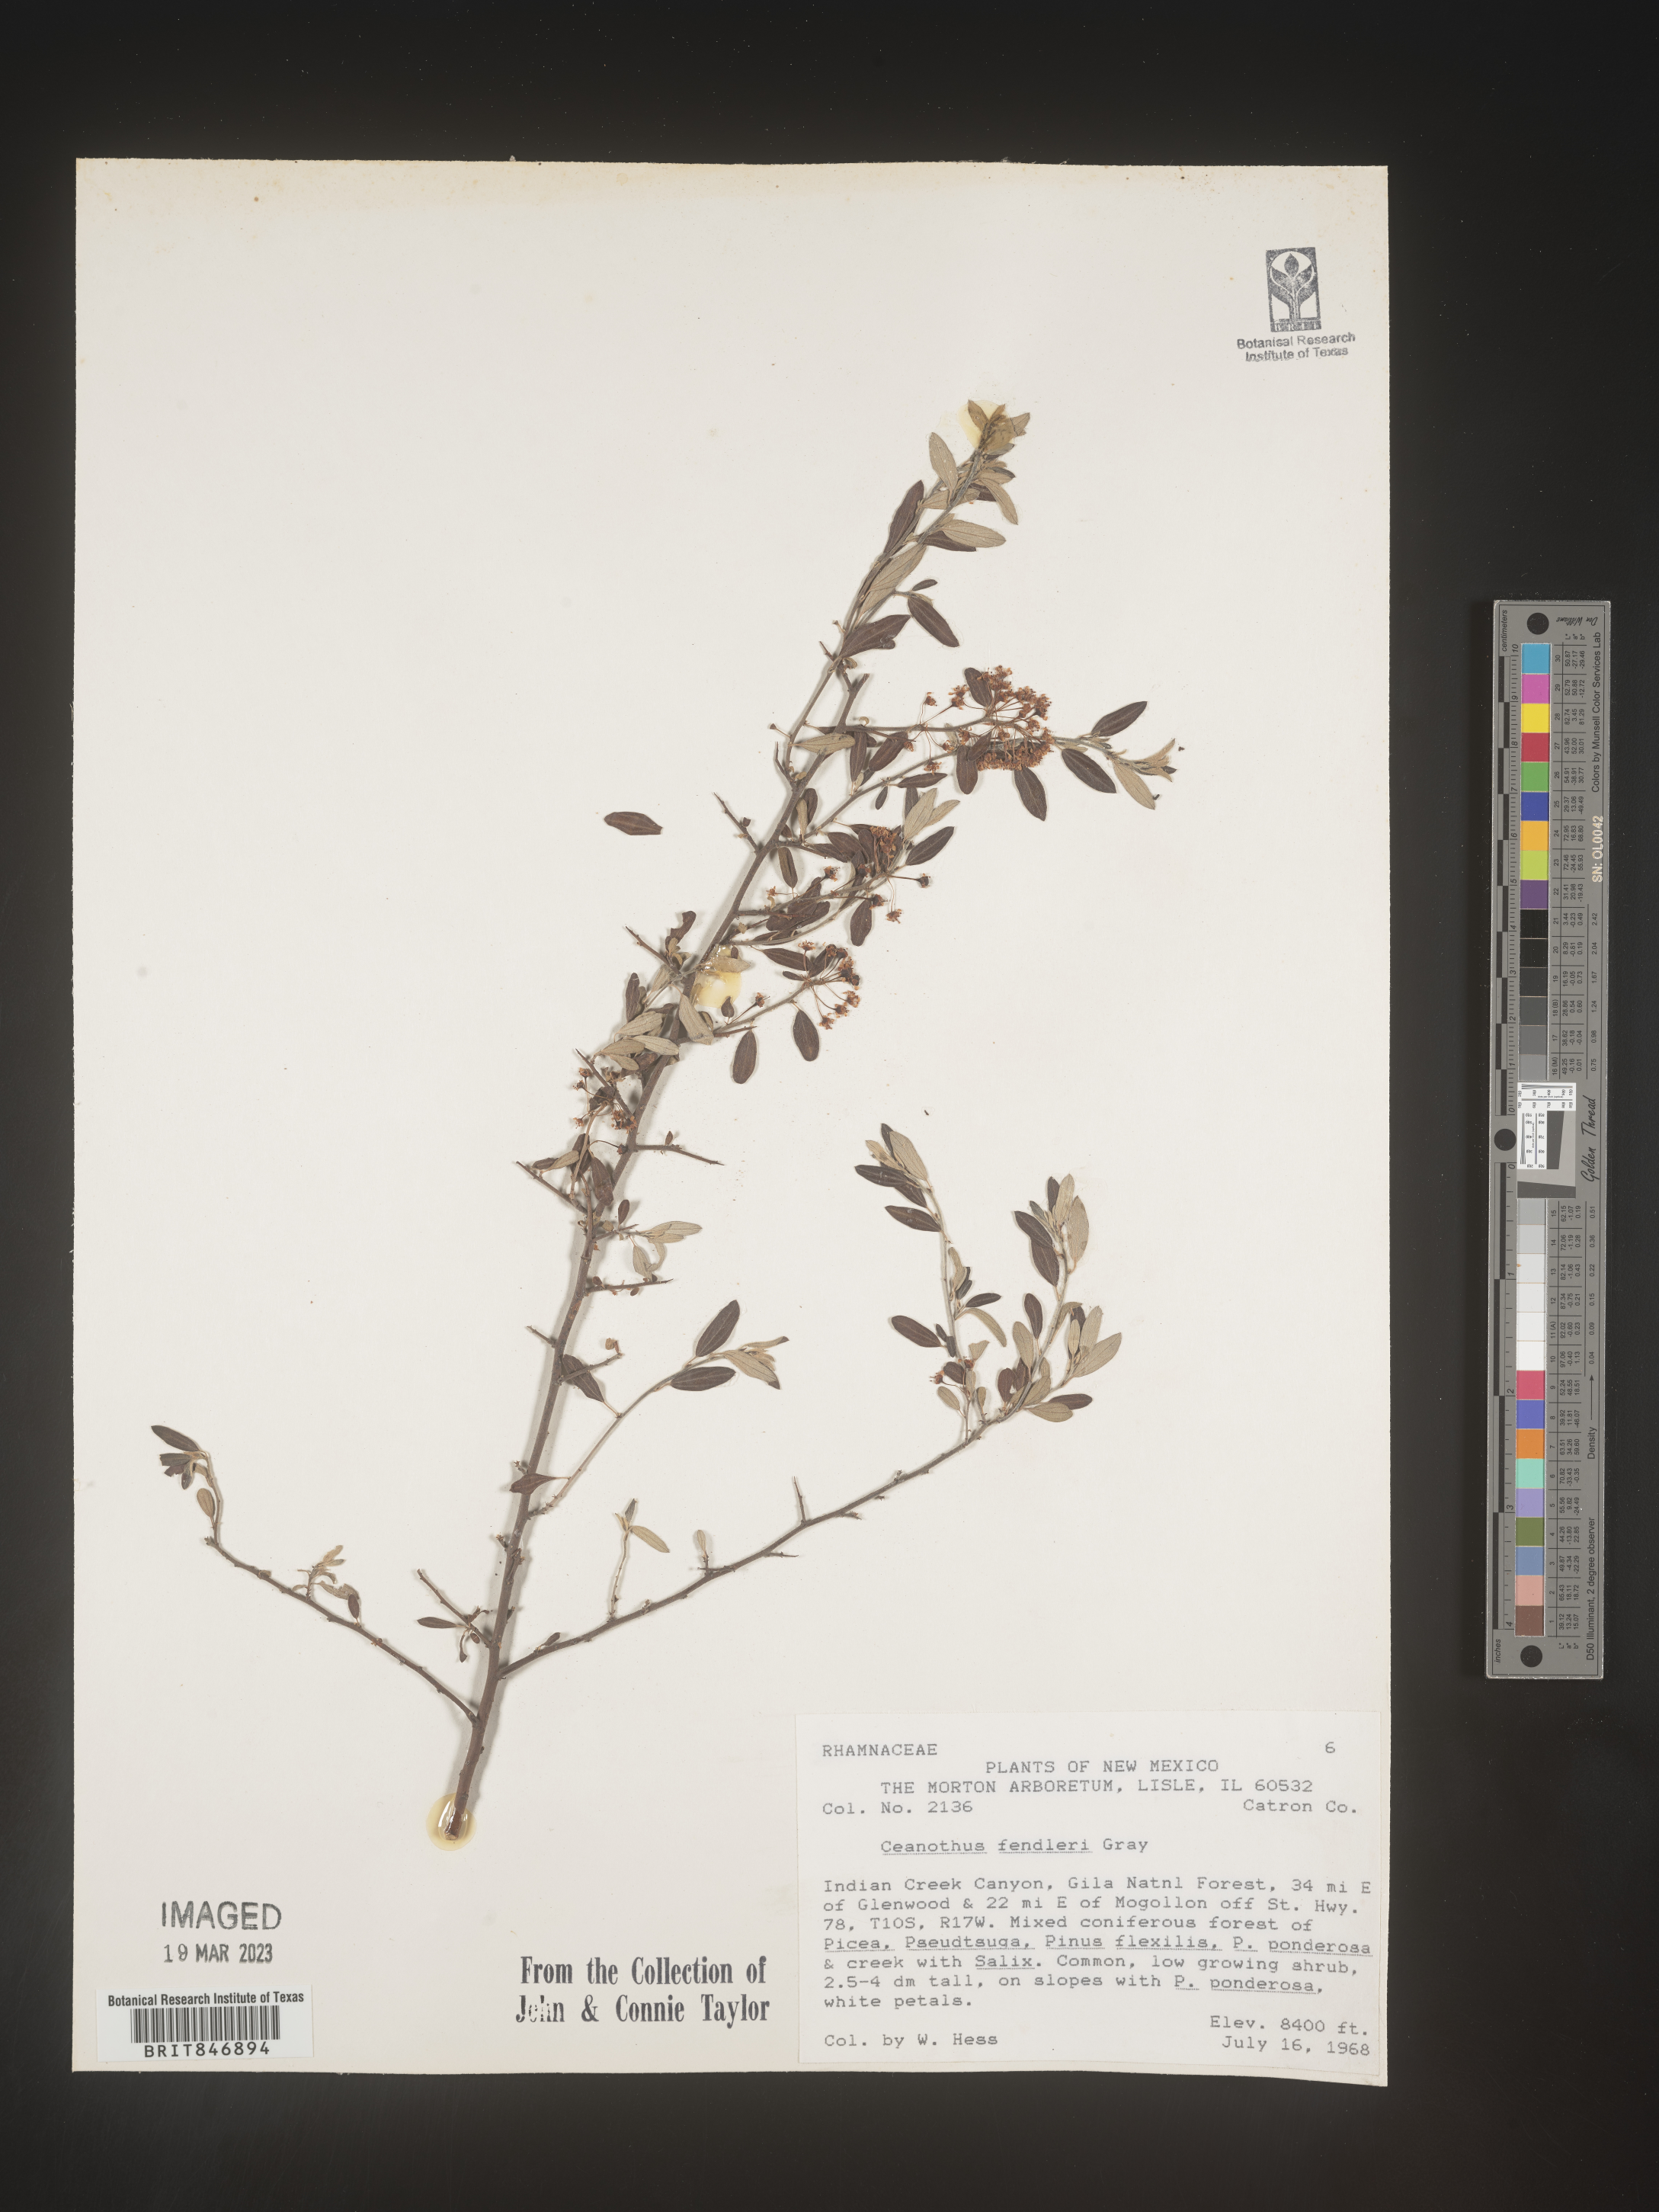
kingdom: Plantae
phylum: Tracheophyta
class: Magnoliopsida
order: Rosales
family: Rhamnaceae
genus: Ceanothus
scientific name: Ceanothus fendleri
